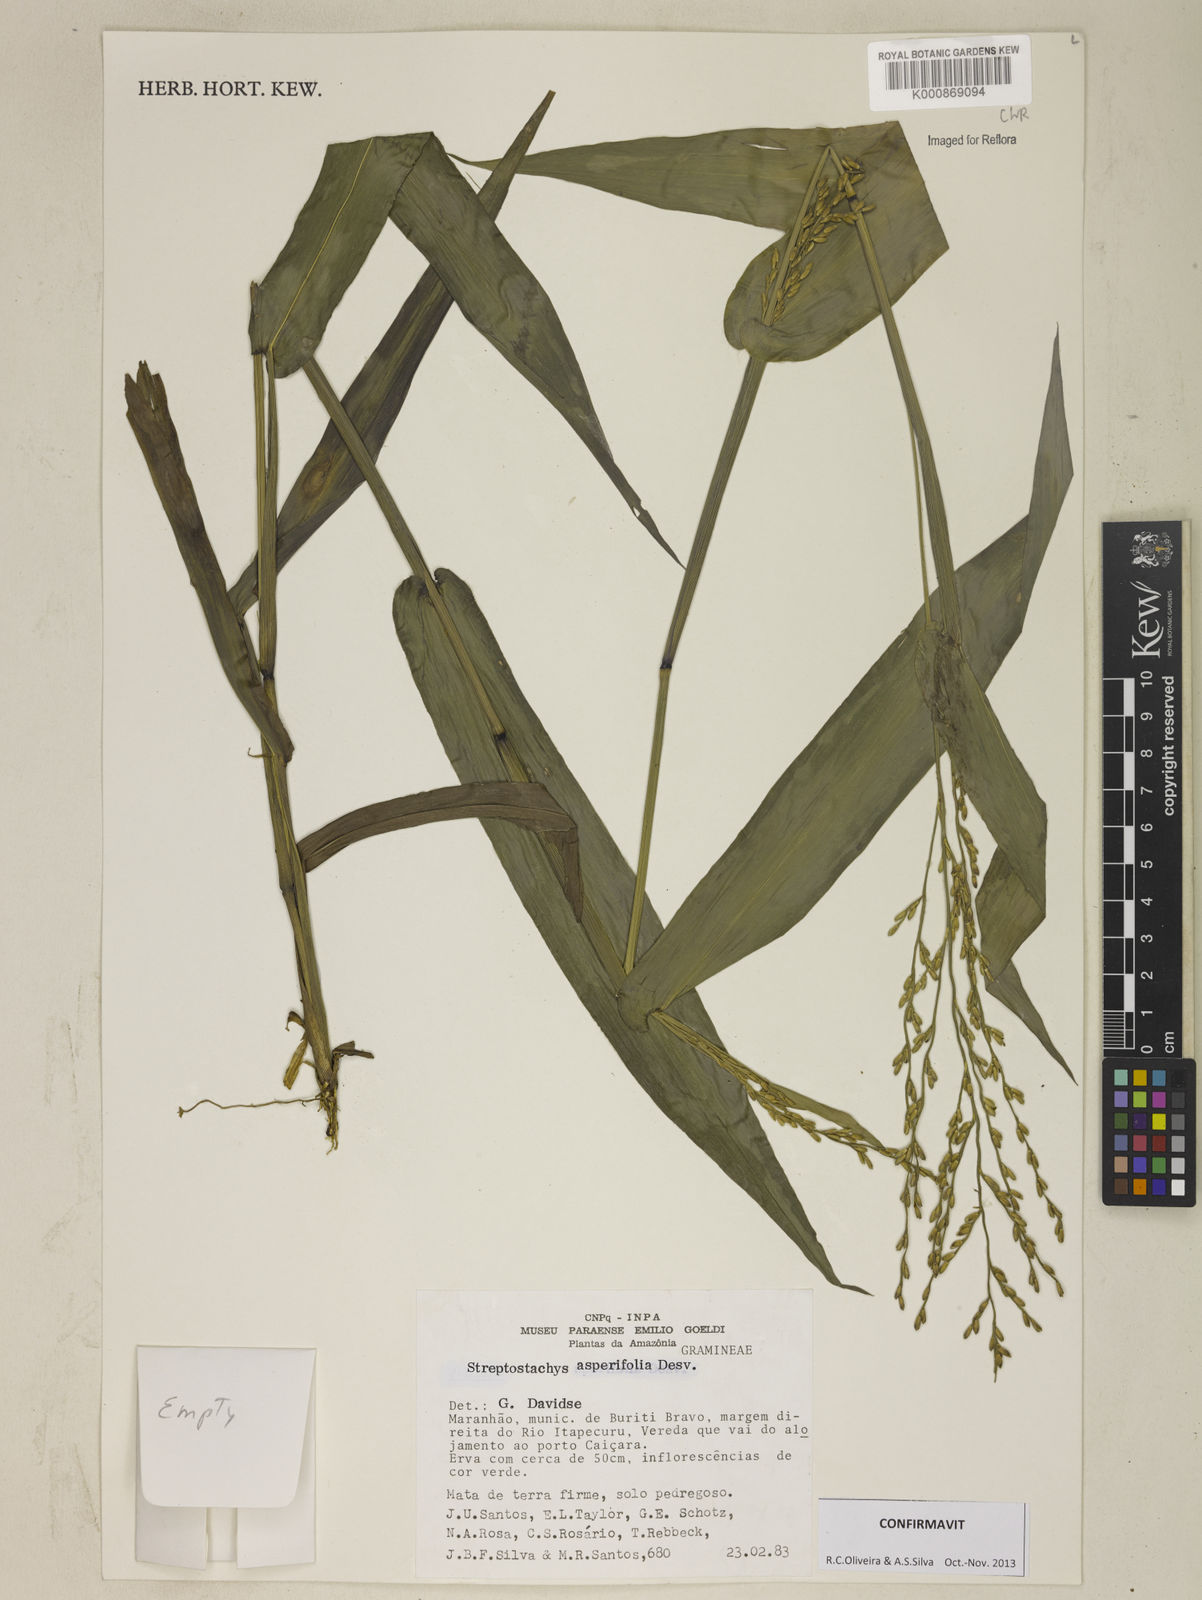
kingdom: Plantae
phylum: Tracheophyta
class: Liliopsida
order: Poales
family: Poaceae
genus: Streptostachys
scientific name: Streptostachys asperifolia
